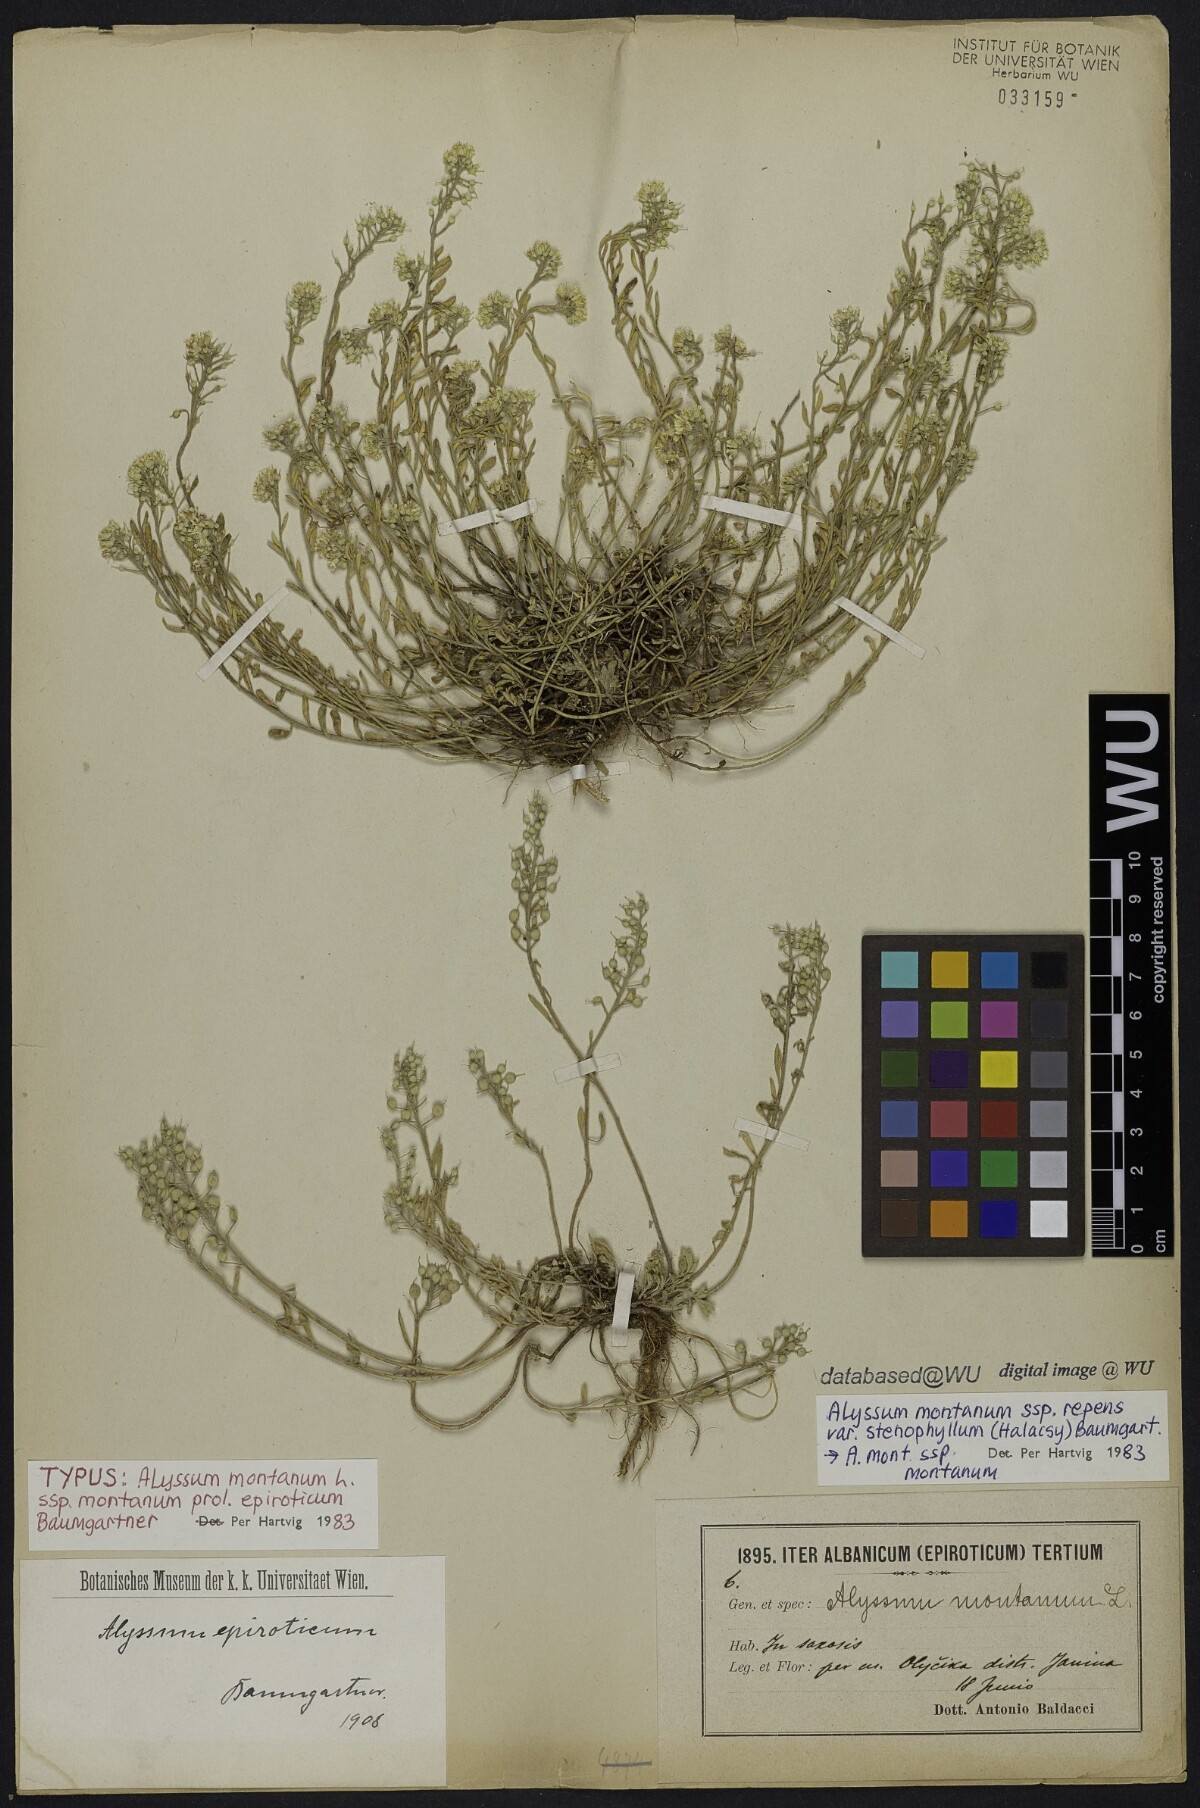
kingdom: Plantae
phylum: Tracheophyta
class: Magnoliopsida
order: Brassicales
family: Brassicaceae
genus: Alyssum
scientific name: Alyssum montanum
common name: Mountain alison
